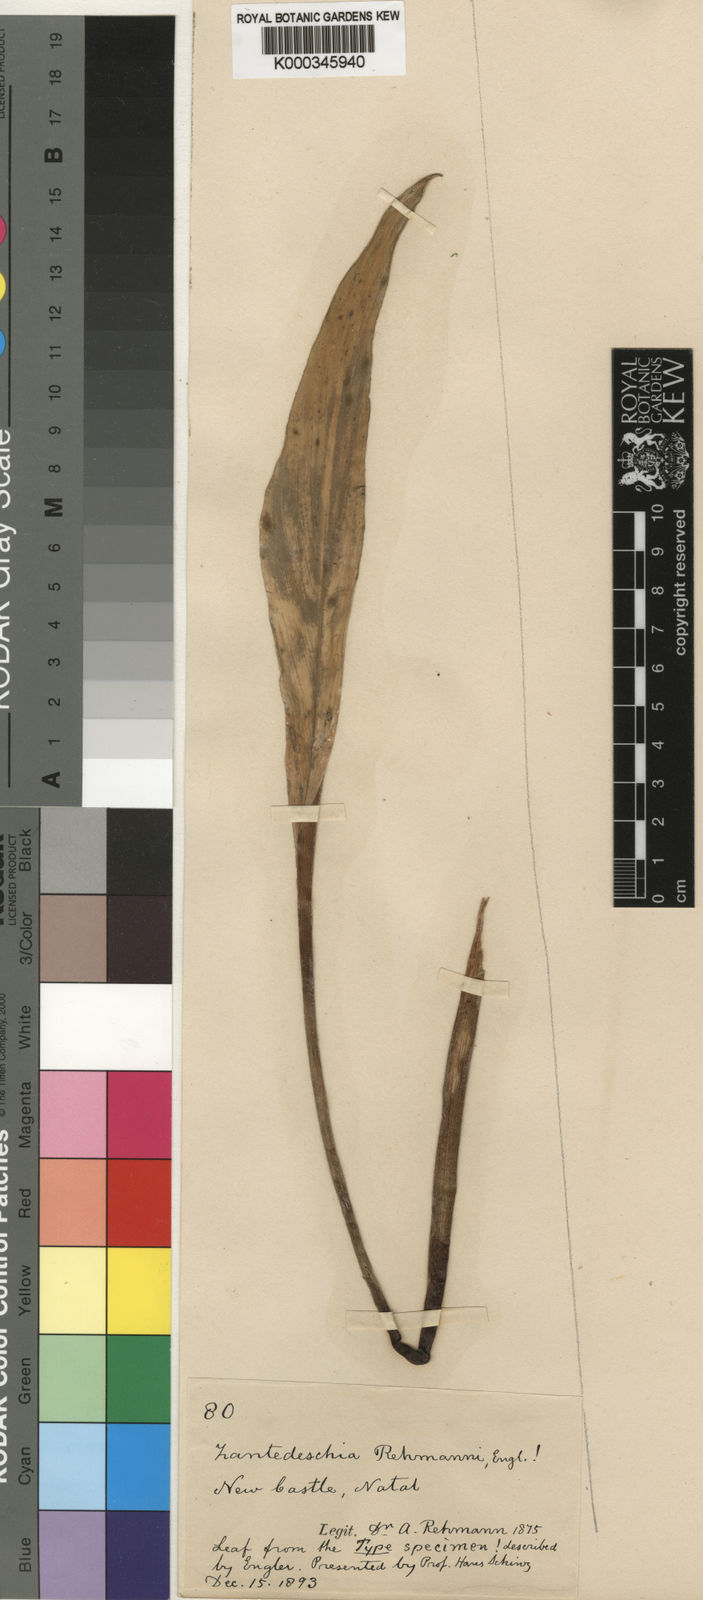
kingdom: Plantae
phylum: Tracheophyta
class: Liliopsida
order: Alismatales
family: Araceae
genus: Zantedeschia
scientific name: Zantedeschia rehmannii
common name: Red calla
